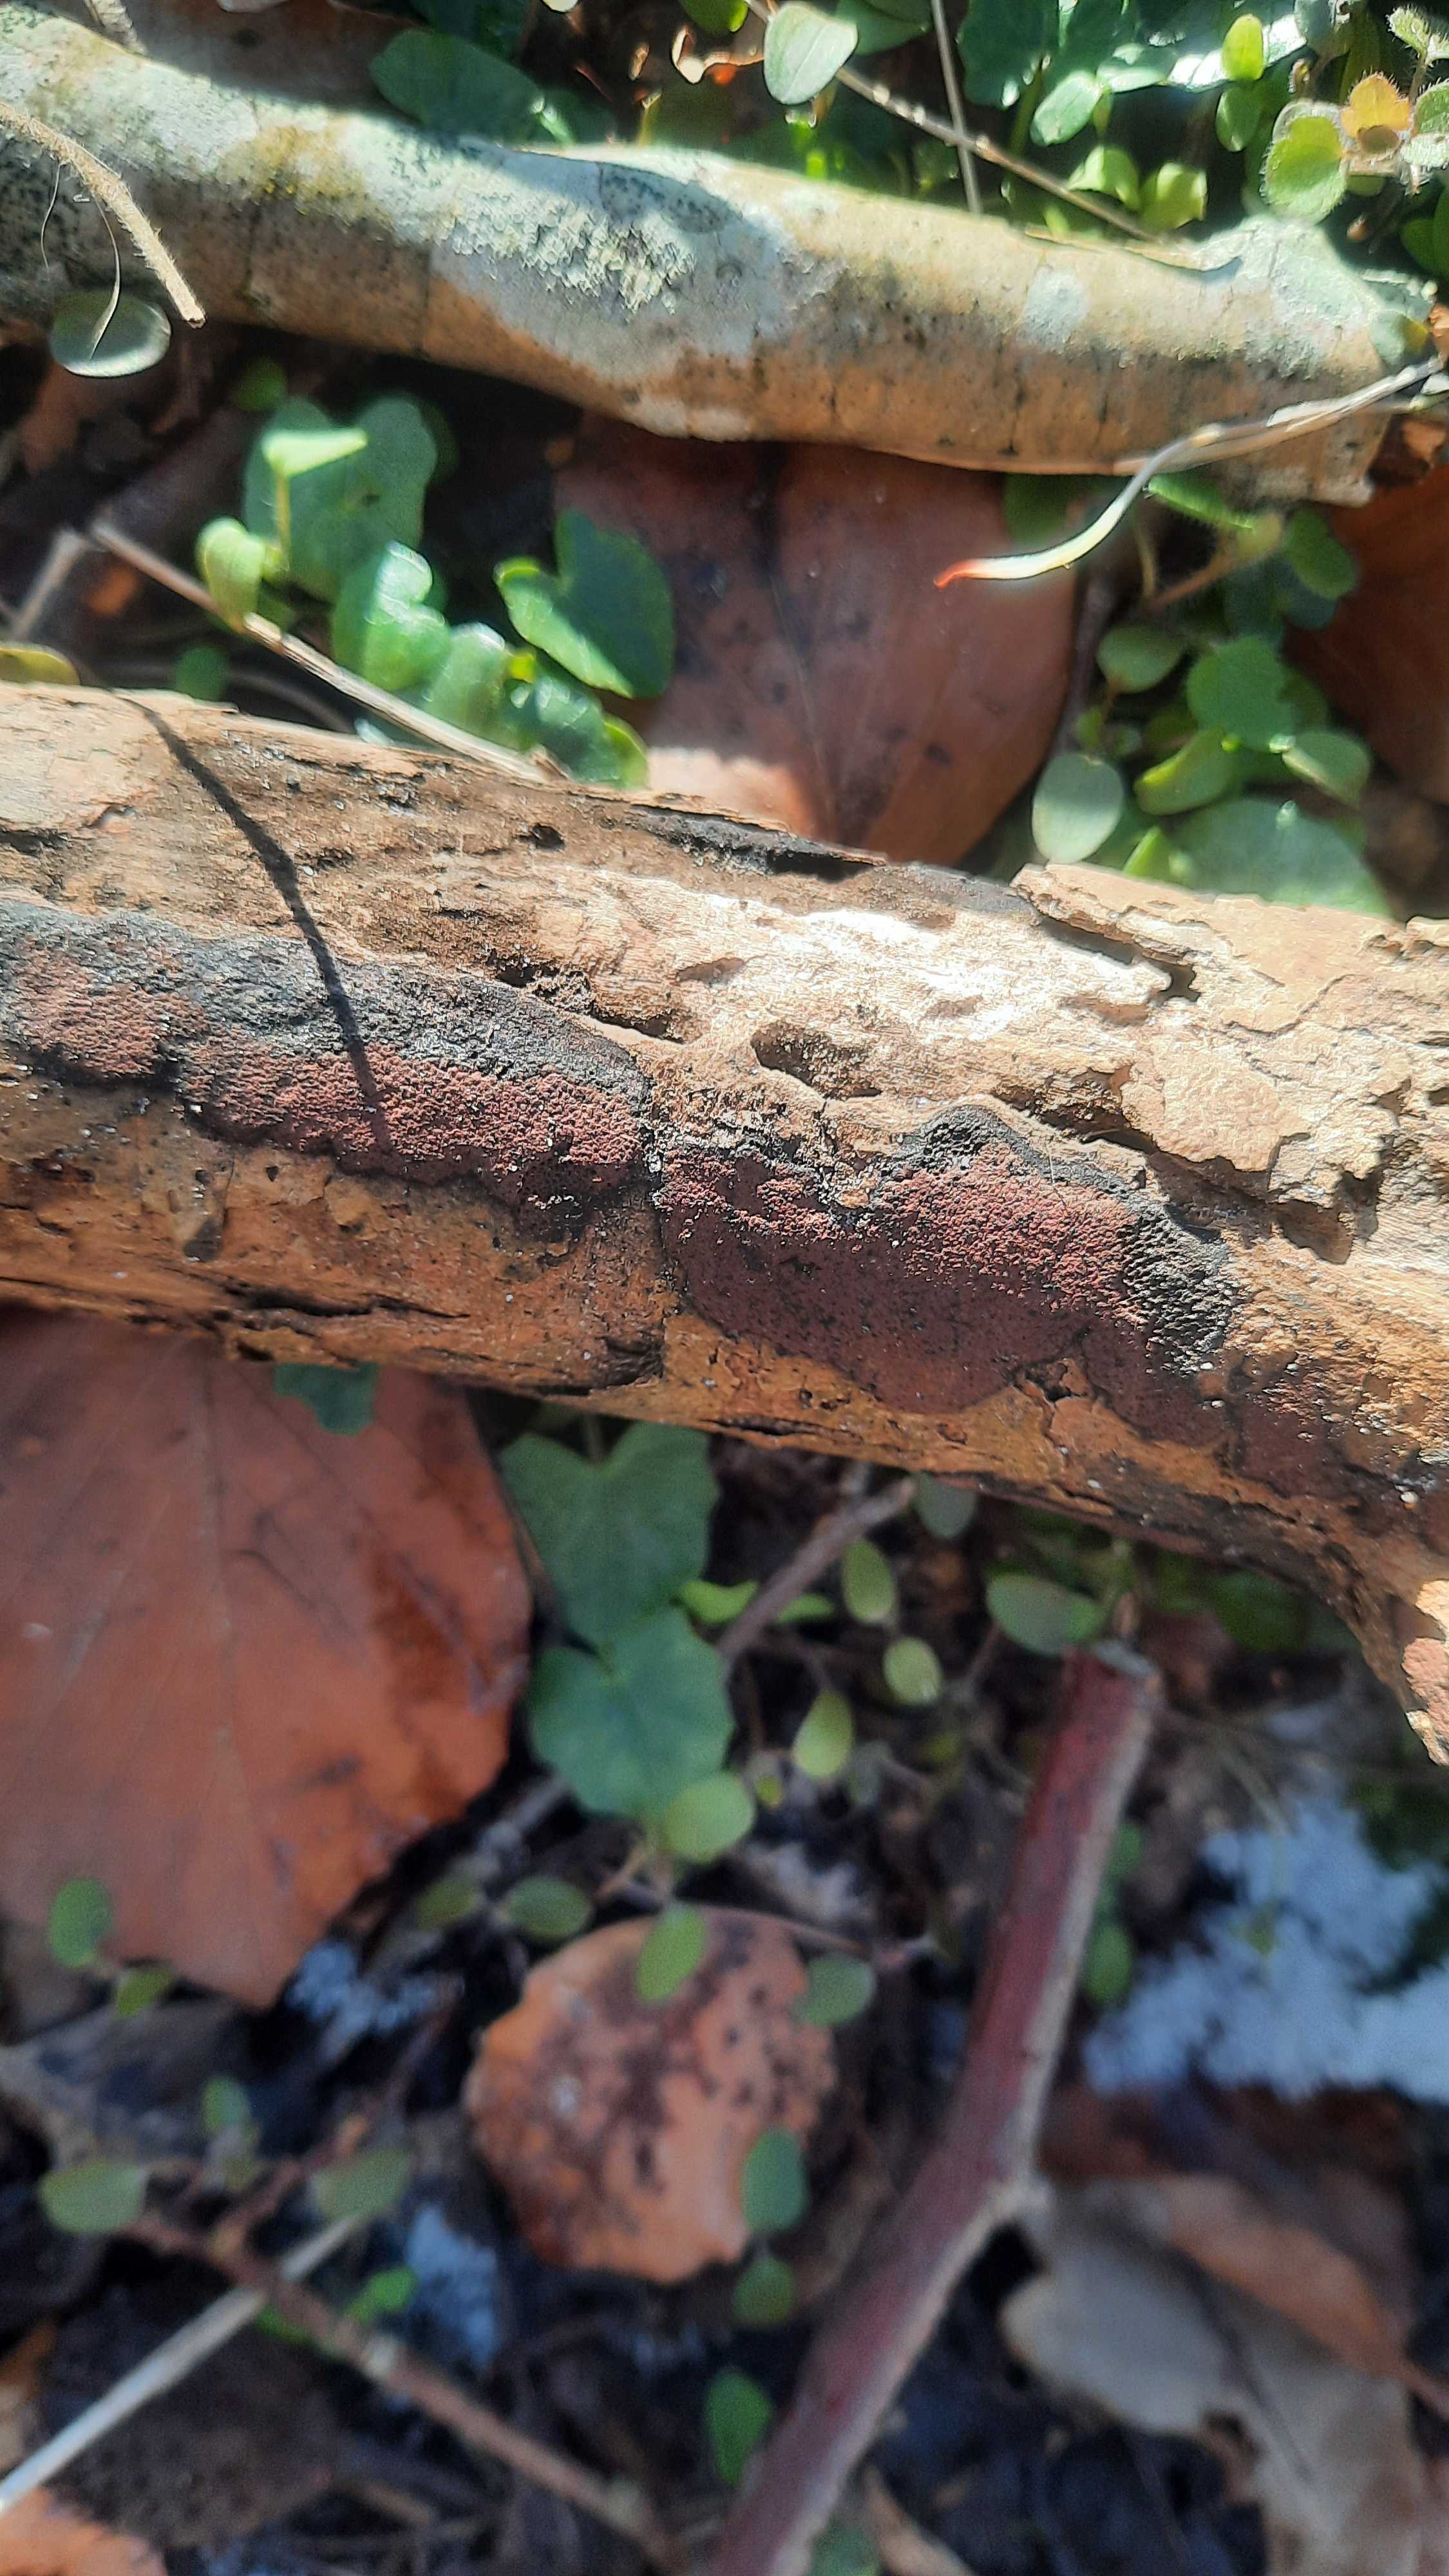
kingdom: Fungi
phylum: Ascomycota
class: Sordariomycetes
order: Xylariales
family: Hypoxylaceae
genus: Hypoxylon
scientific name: Hypoxylon
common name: kulbær
